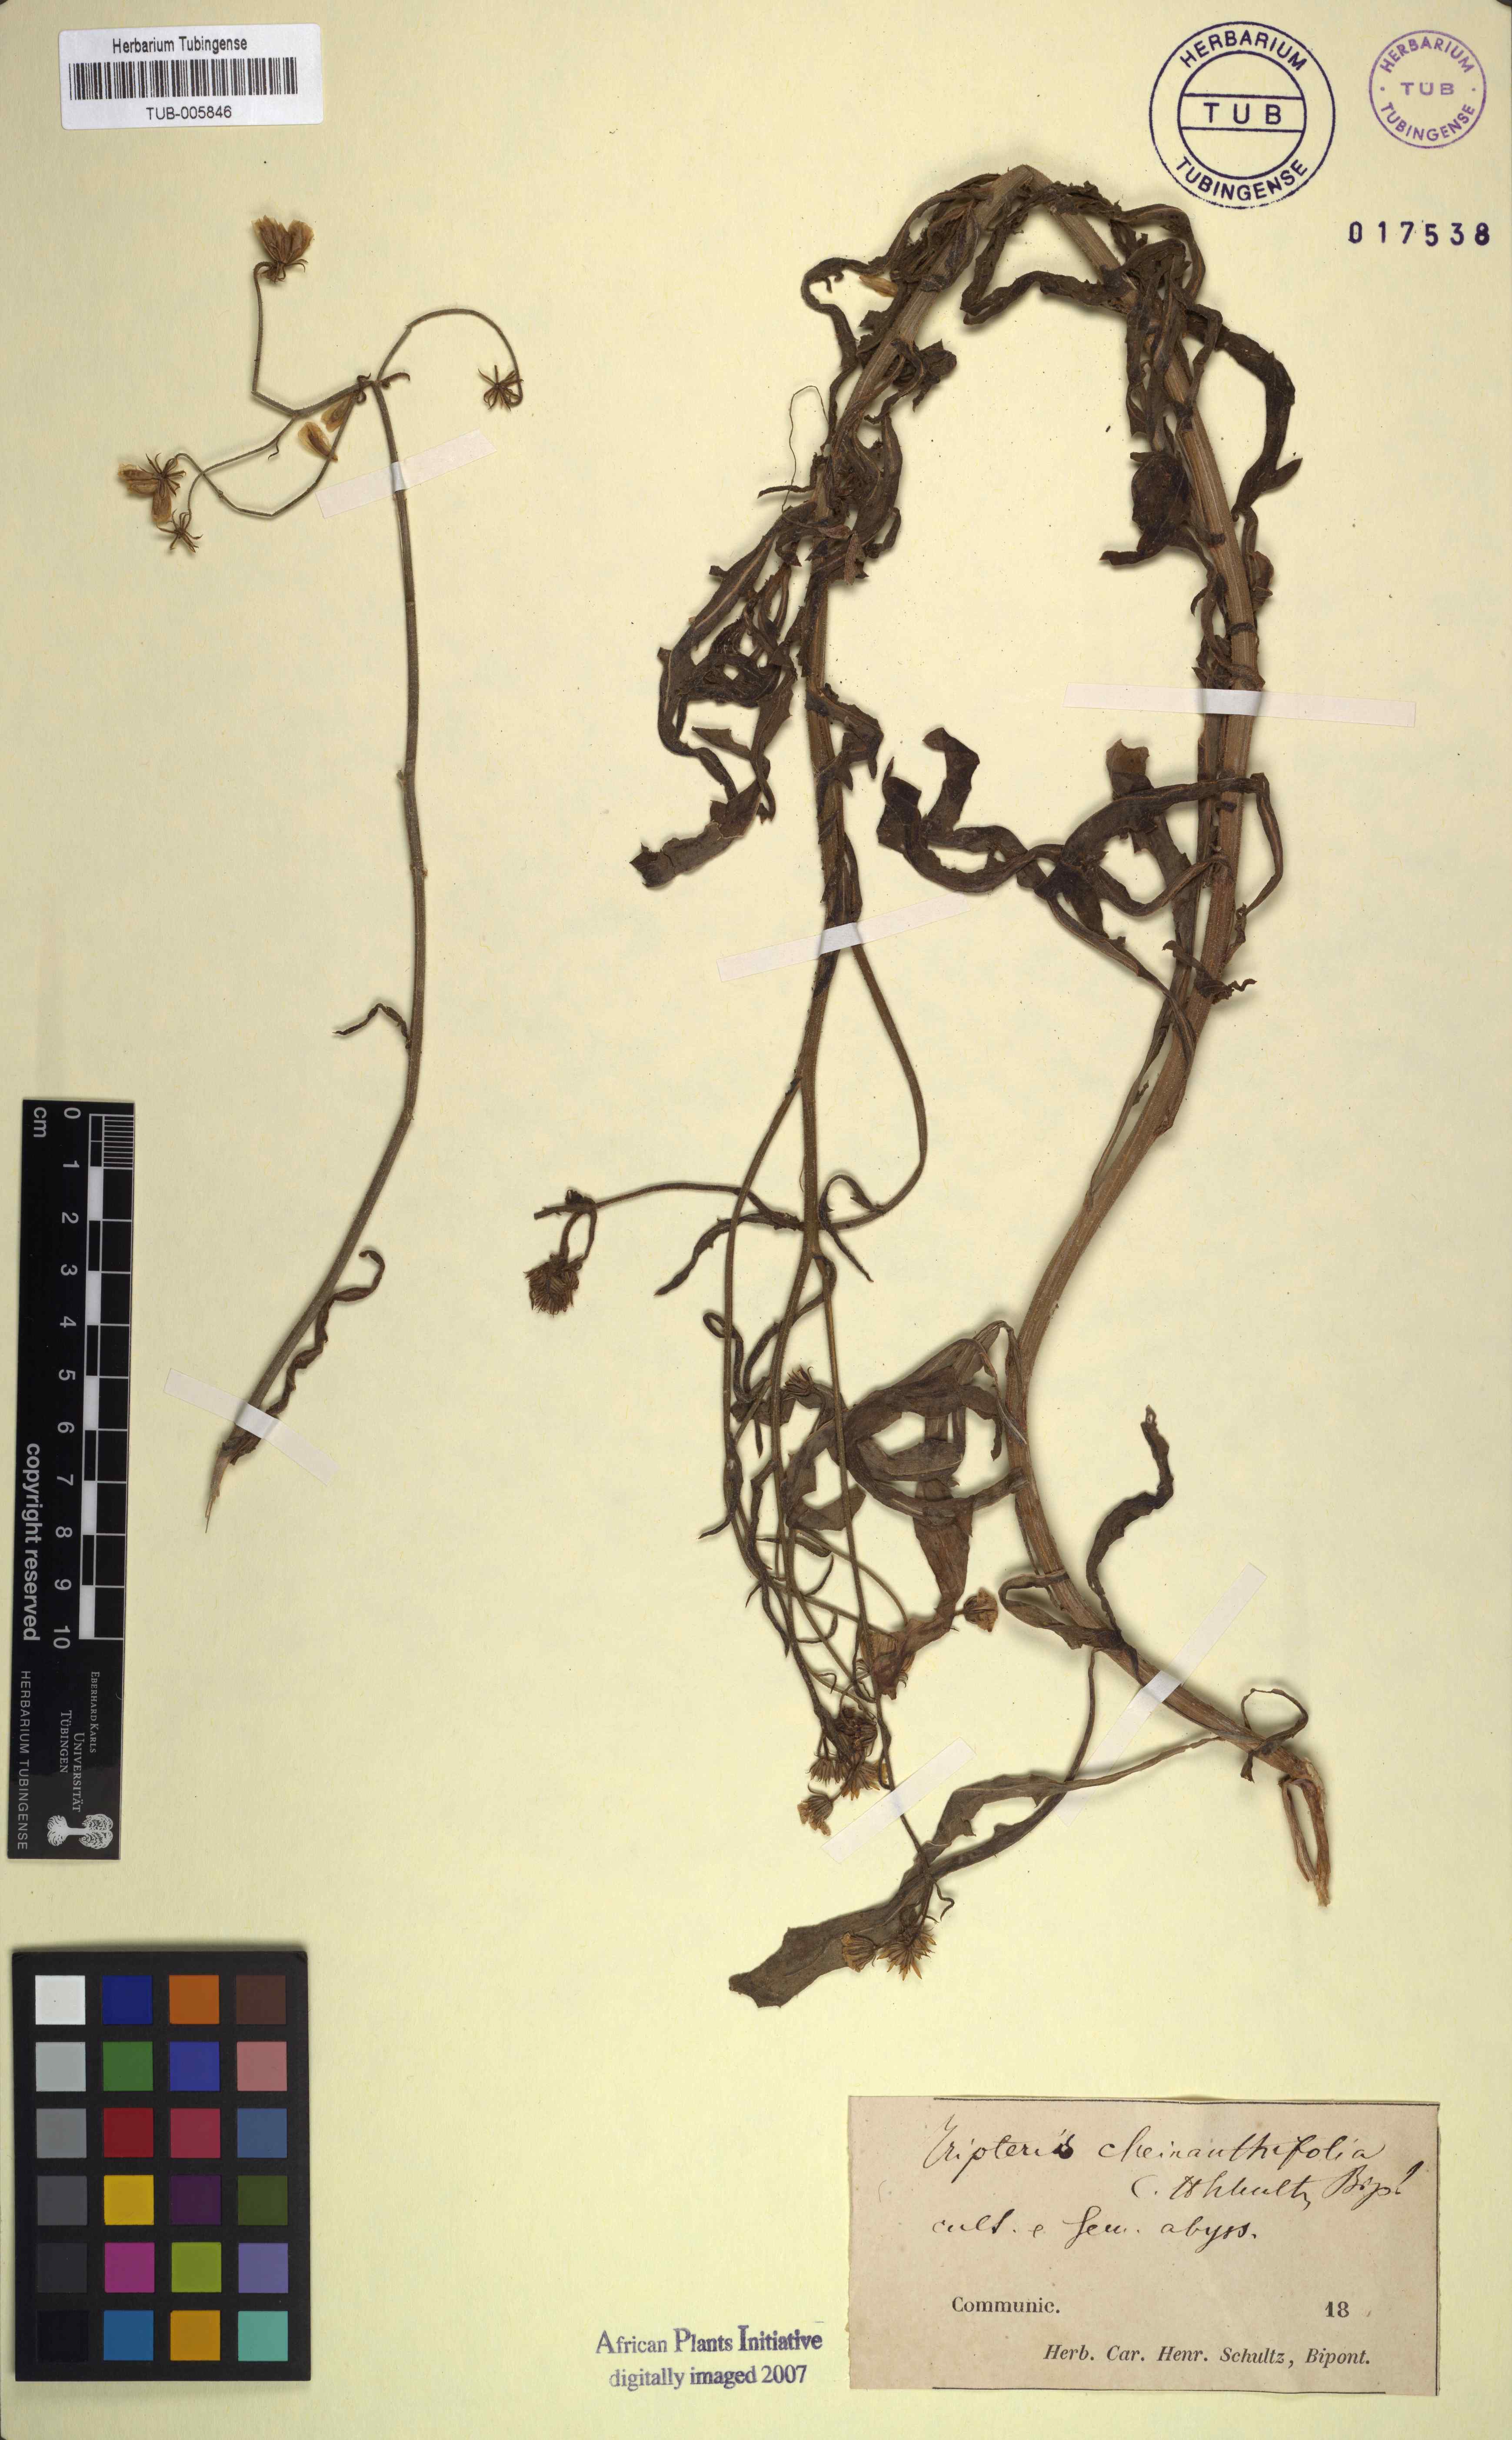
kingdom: Plantae
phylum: Tracheophyta
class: Magnoliopsida
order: Asterales
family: Asteraceae
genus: Osteospermum
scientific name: Osteospermum vaillantii
